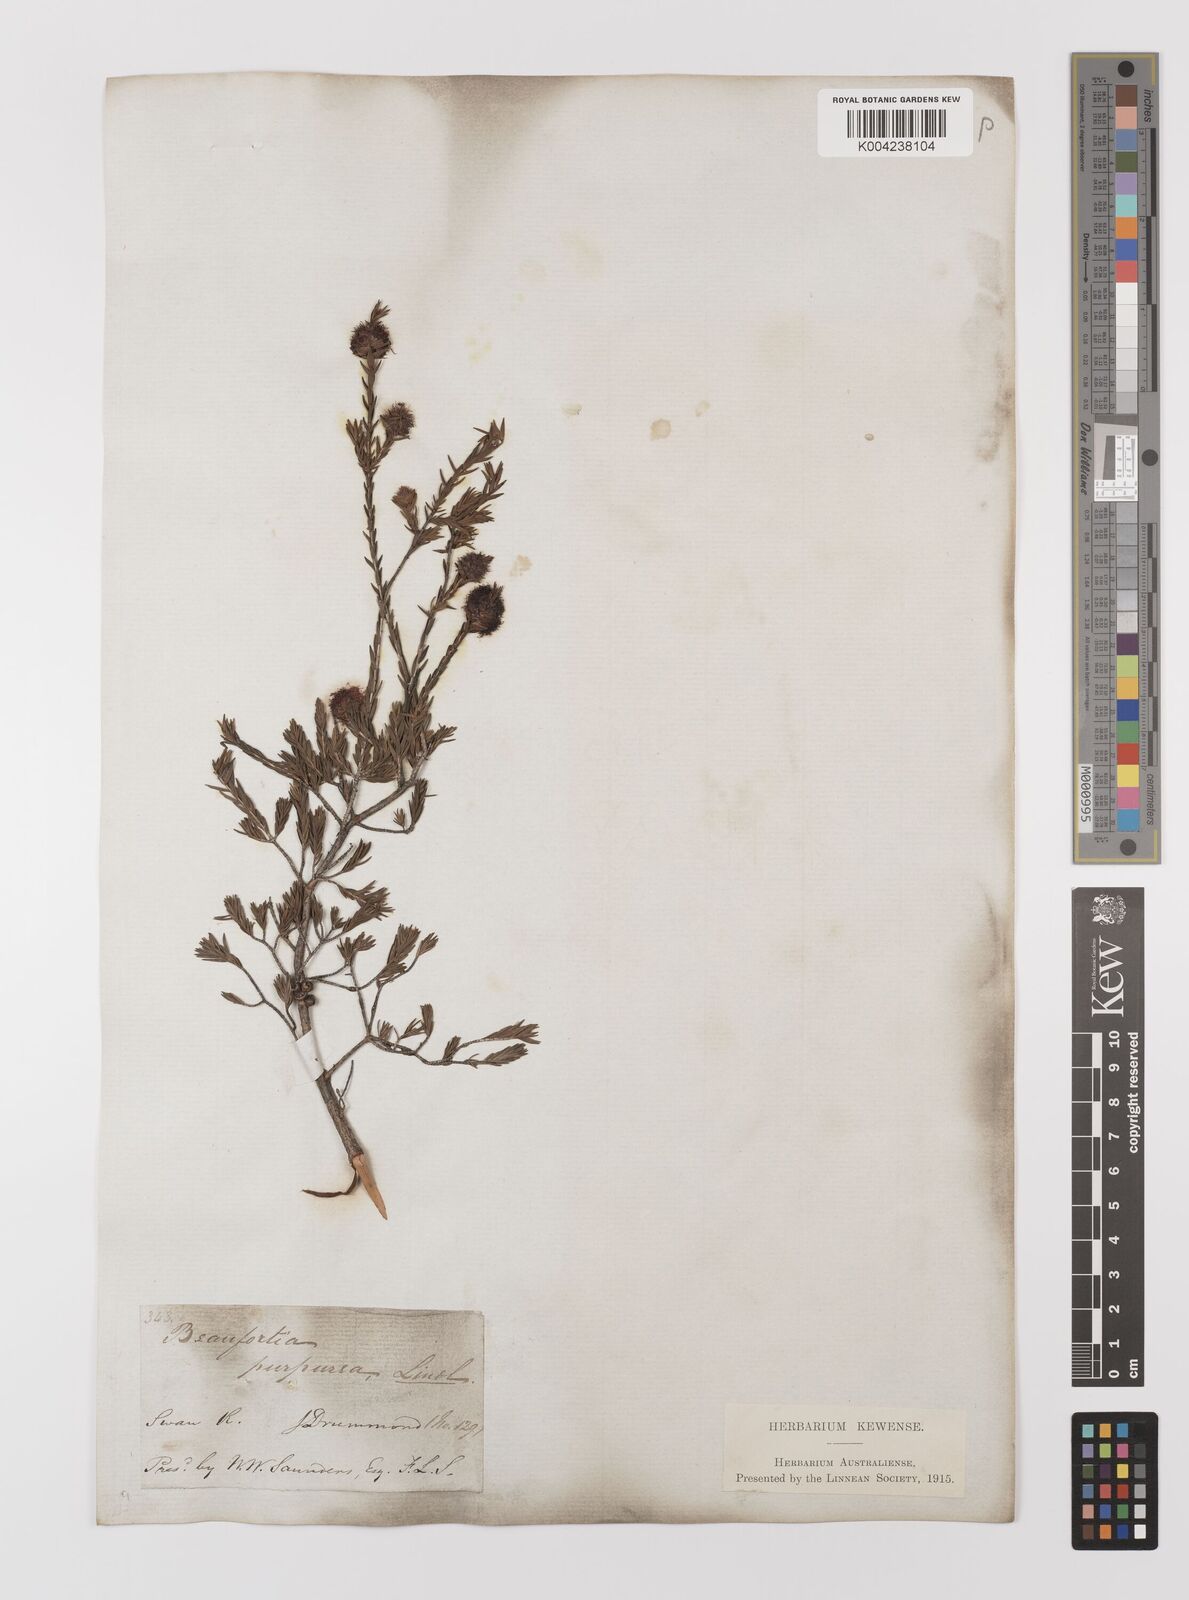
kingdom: Plantae
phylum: Tracheophyta
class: Magnoliopsida
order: Myrtales
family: Myrtaceae
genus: Melaleuca
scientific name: Melaleuca purpurea
